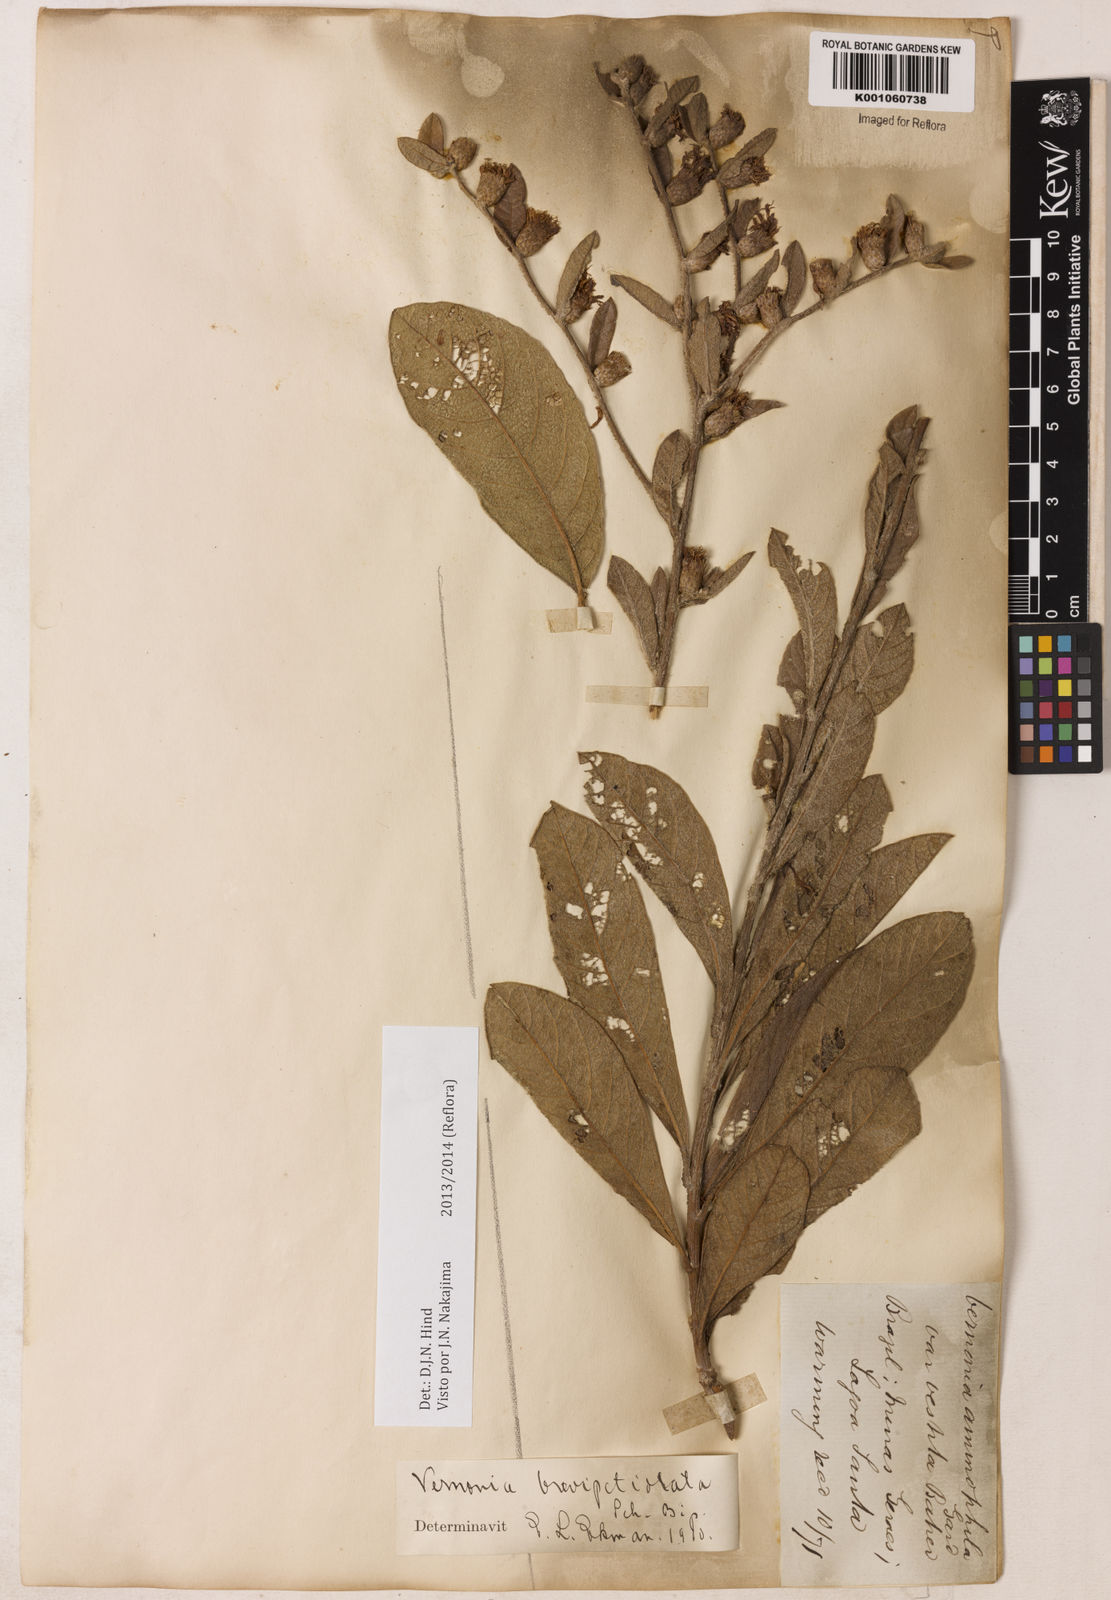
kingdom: Plantae
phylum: Tracheophyta
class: Magnoliopsida
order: Asterales
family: Asteraceae
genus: Lessingianthus
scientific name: Lessingianthus brevipetiolatus
